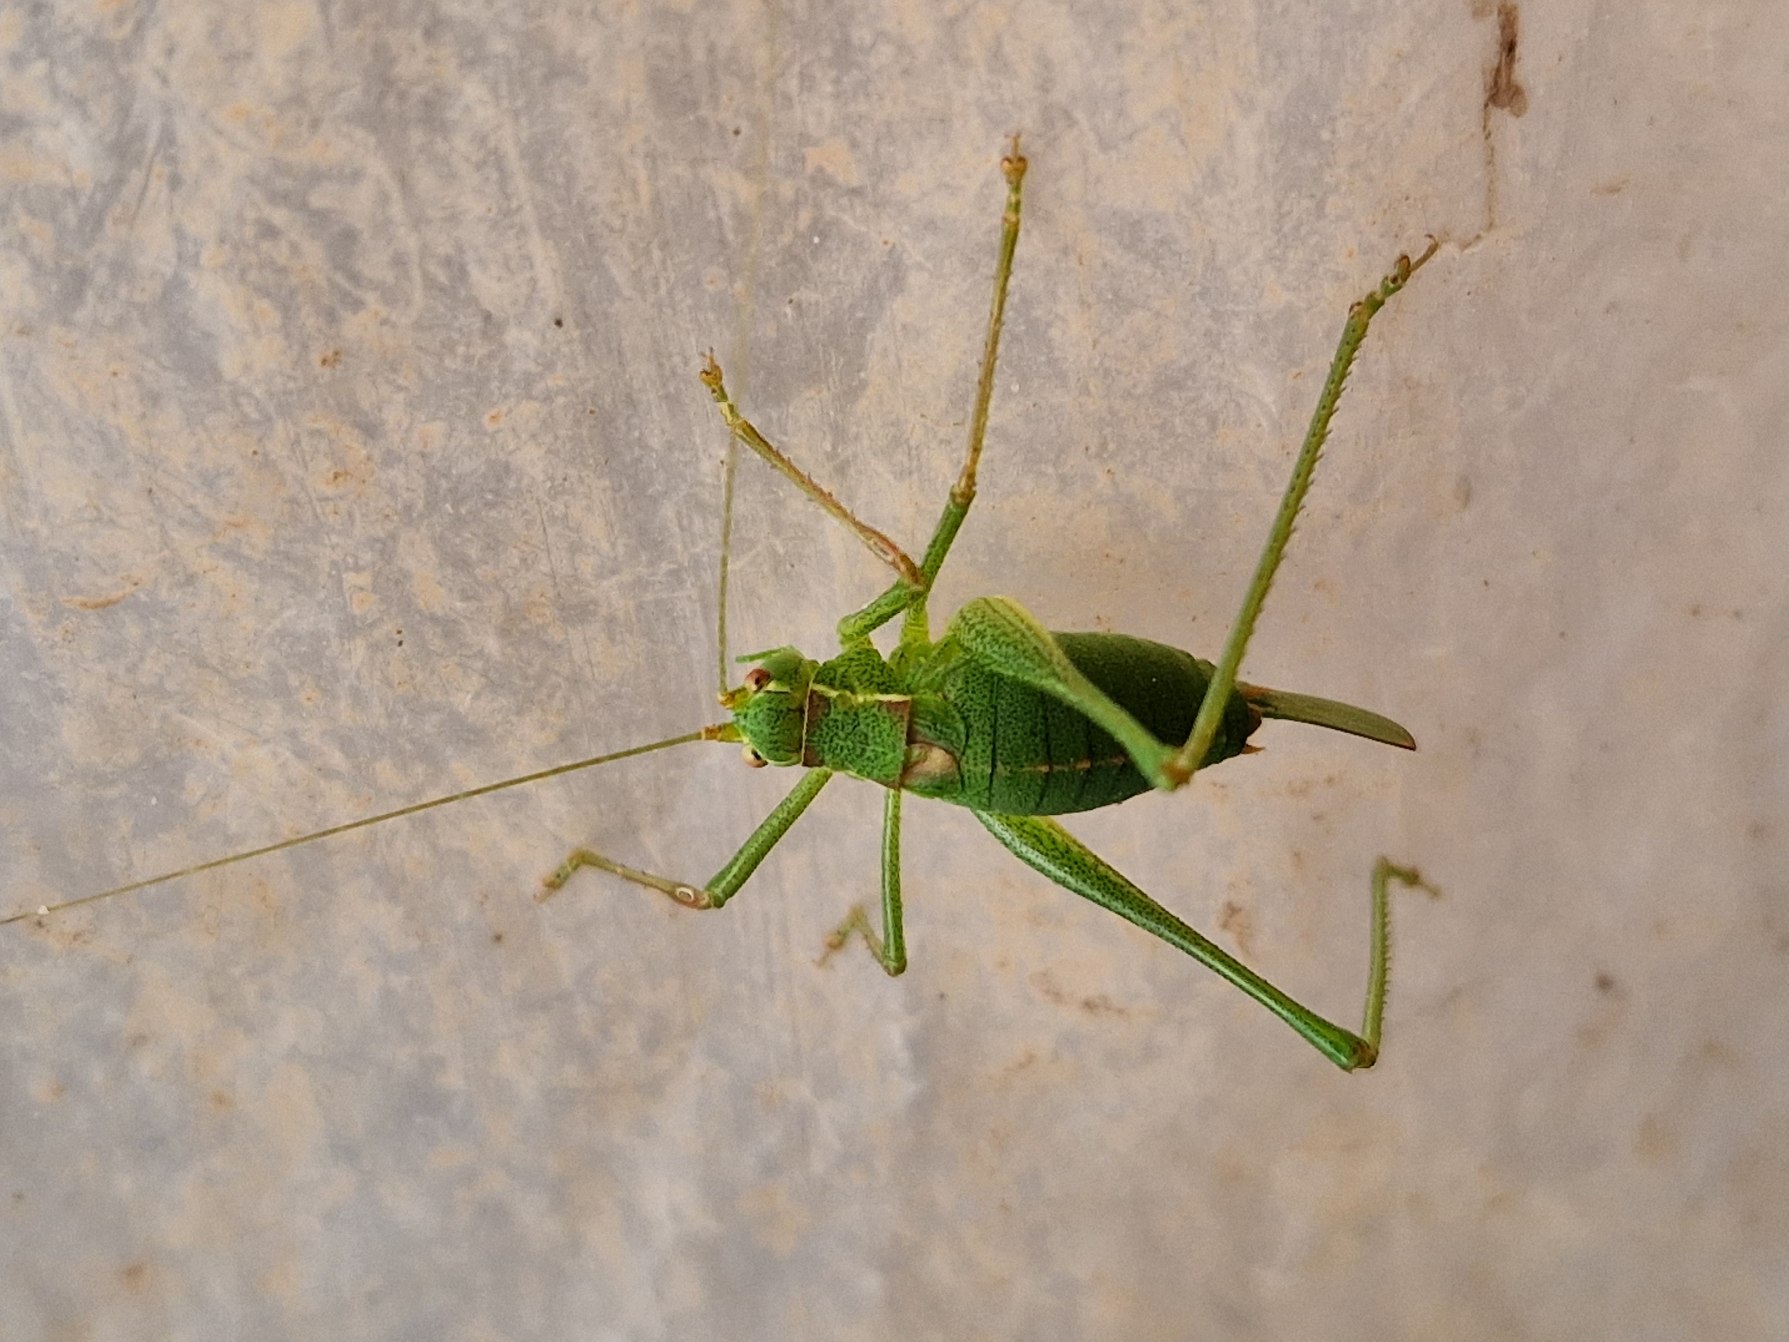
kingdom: Animalia
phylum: Arthropoda
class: Insecta
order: Orthoptera
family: Tettigoniidae
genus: Leptophyes
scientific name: Leptophyes punctatissima
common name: Krumknivgræshoppe
